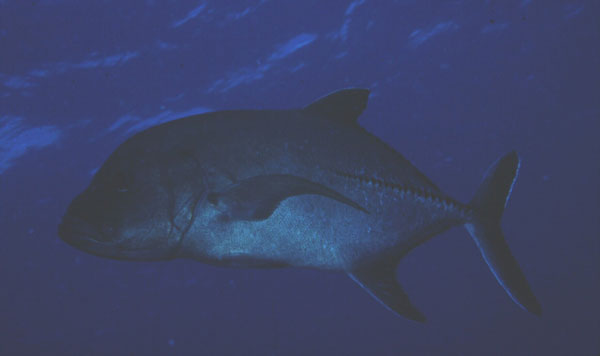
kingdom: Animalia
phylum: Chordata
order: Perciformes
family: Carangidae
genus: Caranx
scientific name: Caranx lugubris
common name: Black jack
